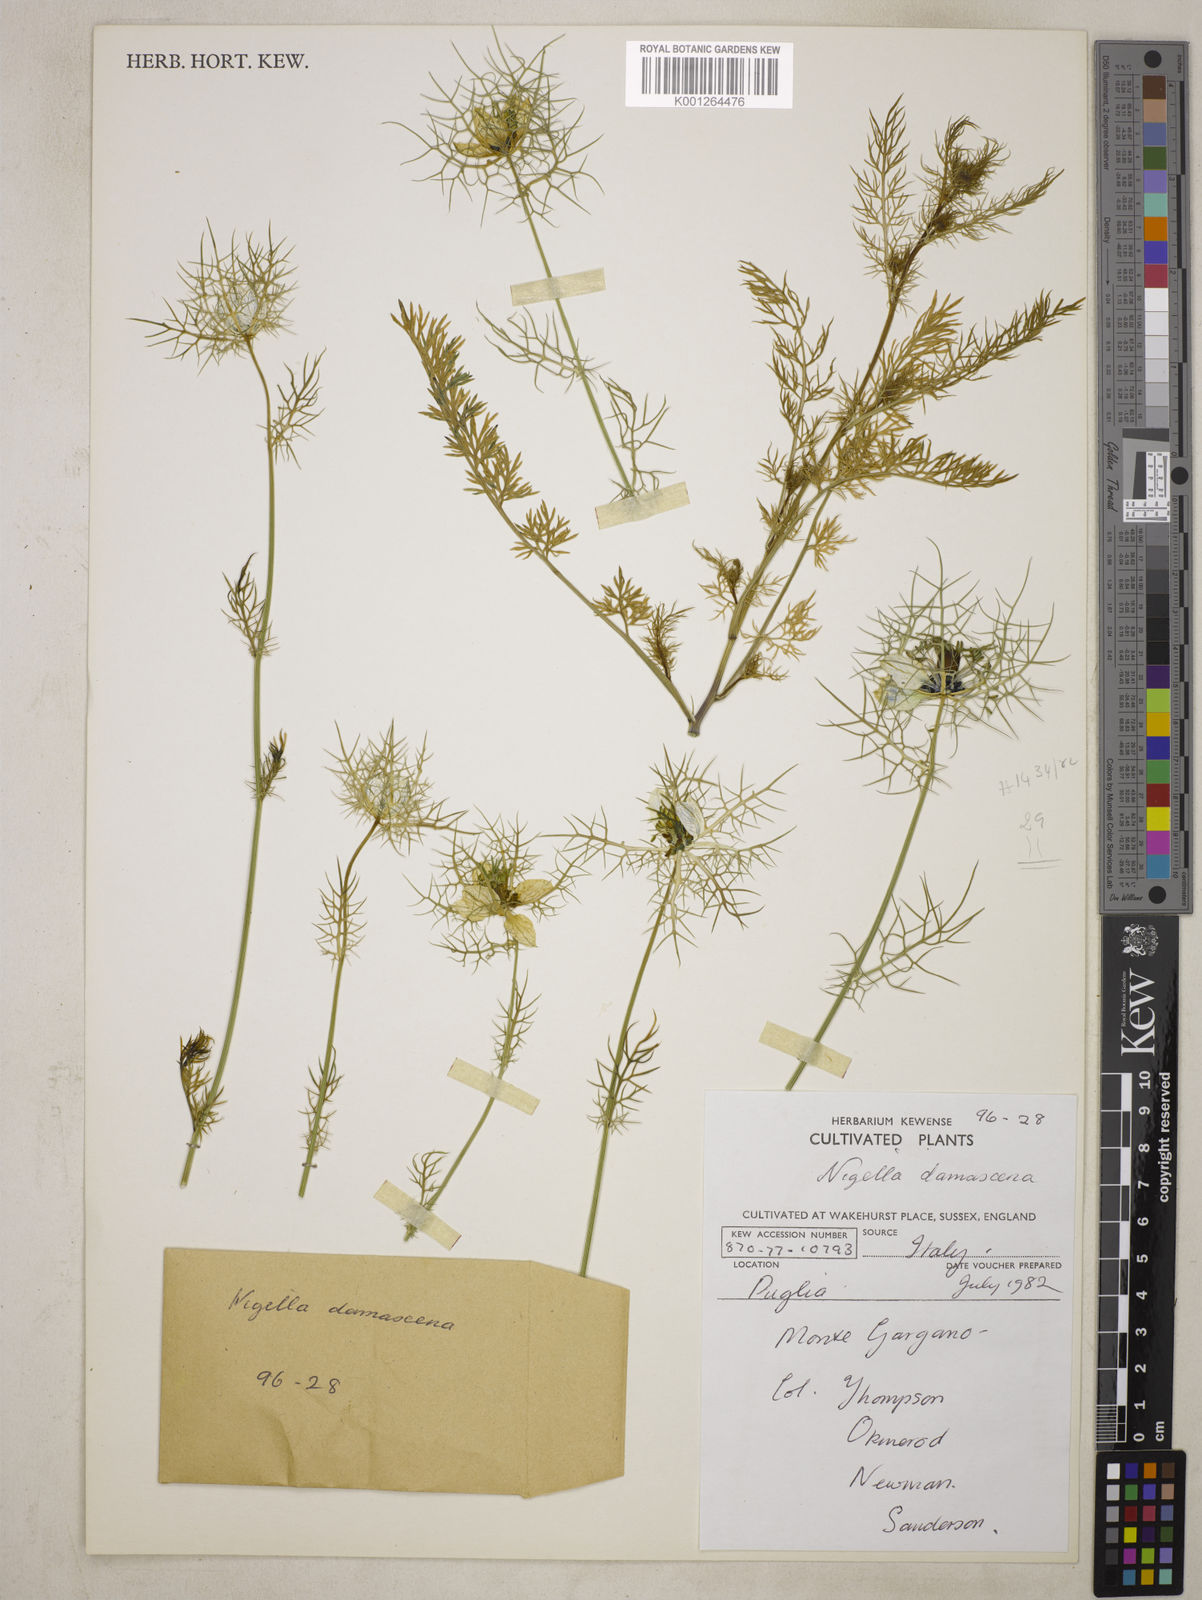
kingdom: Plantae
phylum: Tracheophyta
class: Magnoliopsida
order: Ranunculales
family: Ranunculaceae
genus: Nigella
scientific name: Nigella damascena
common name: Love-in-a-mist
